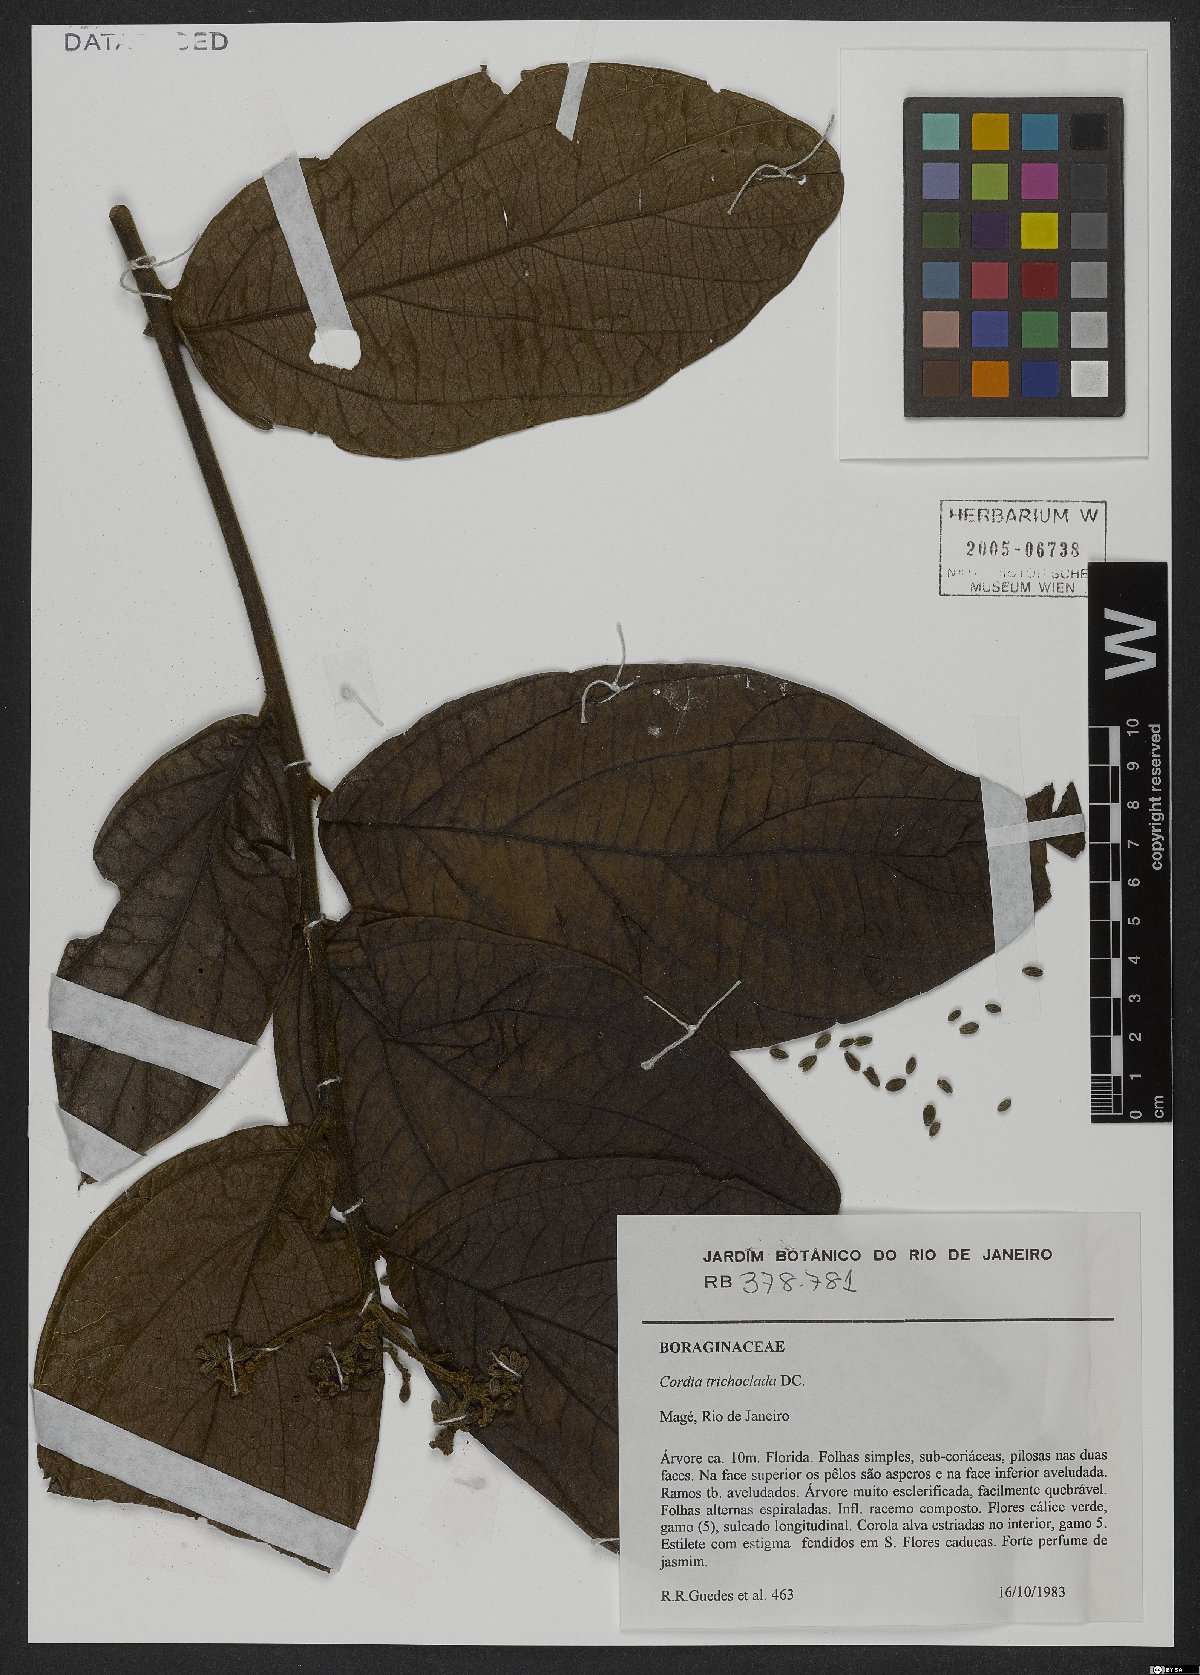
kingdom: Plantae
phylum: Tracheophyta
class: Magnoliopsida
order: Boraginales
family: Cordiaceae
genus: Cordia
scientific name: Cordia trichoclada
